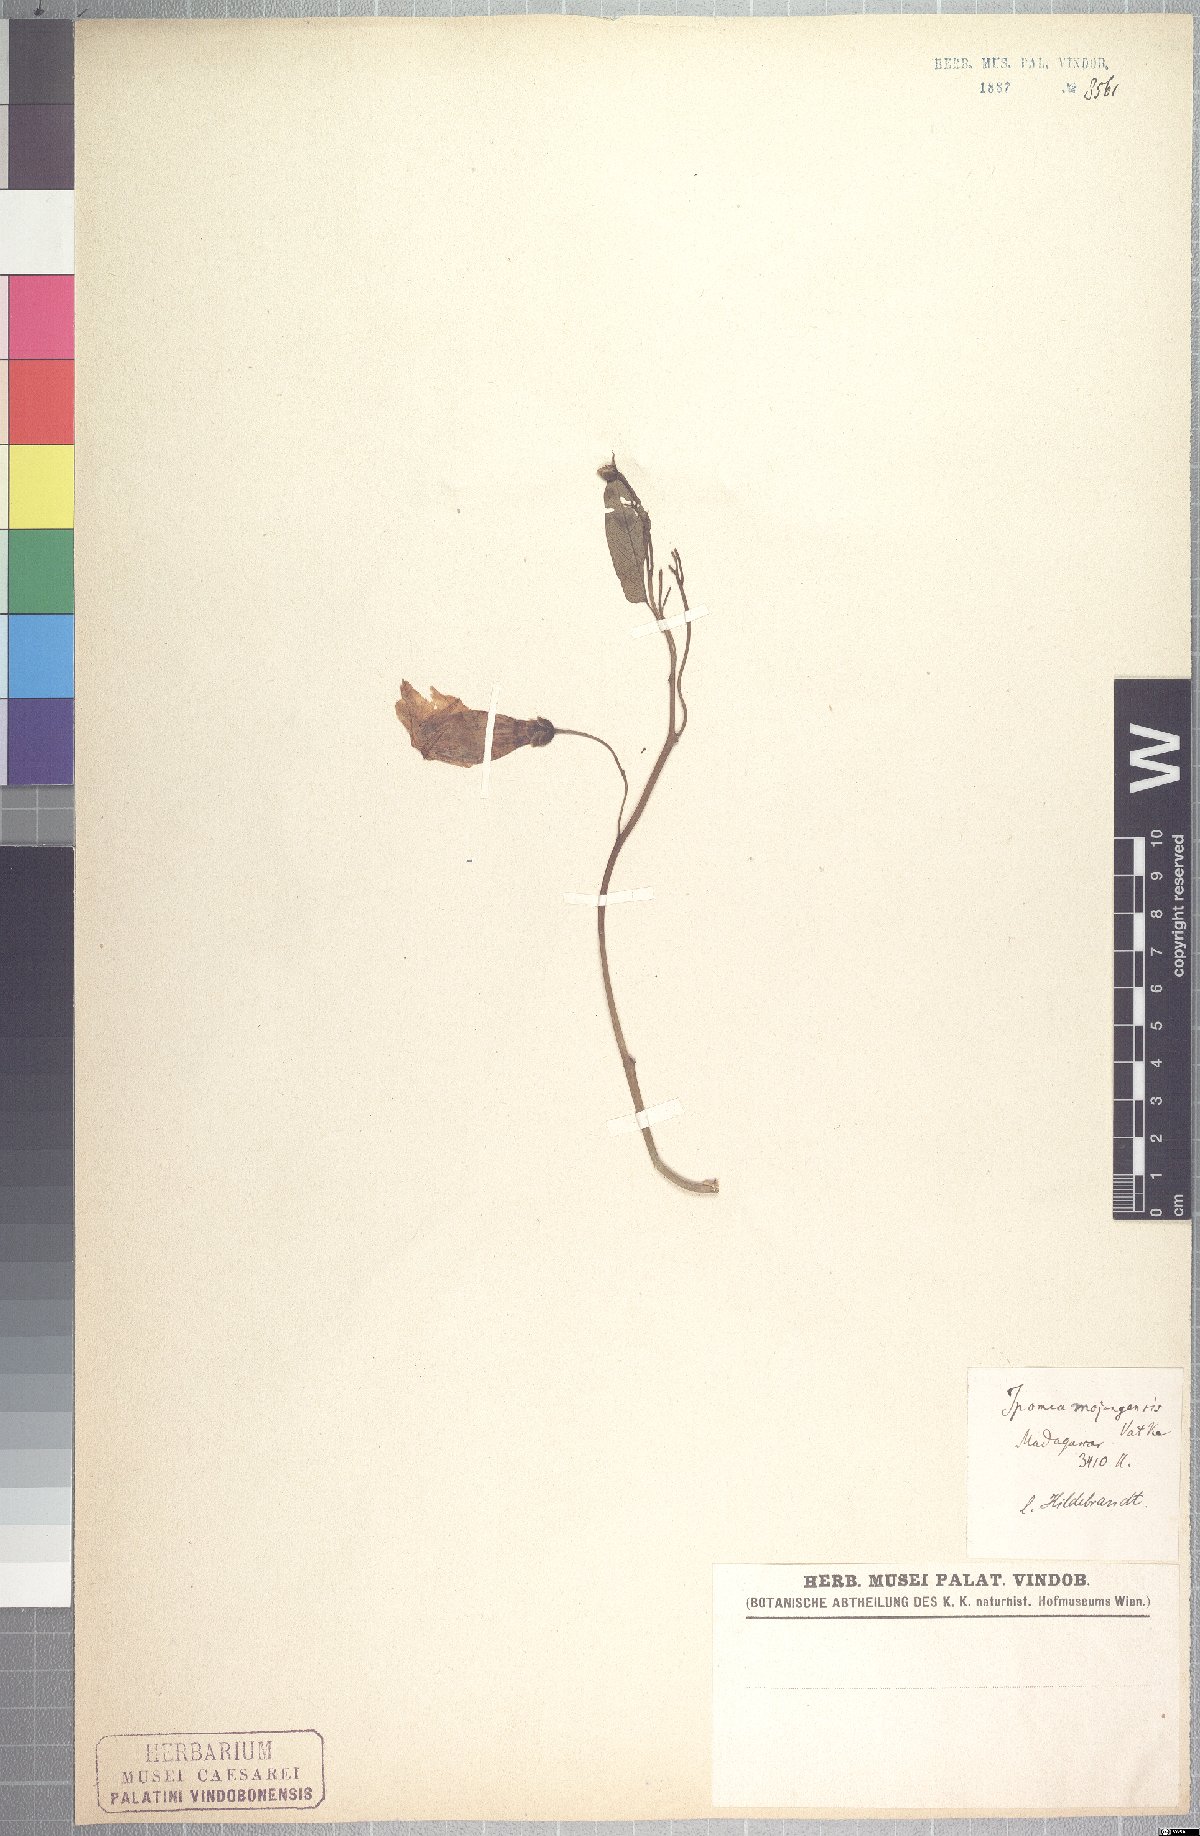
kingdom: Plantae
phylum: Tracheophyta
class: Magnoliopsida
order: Solanales
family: Convolvulaceae
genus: Stictocardia
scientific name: Stictocardia mojangensis
